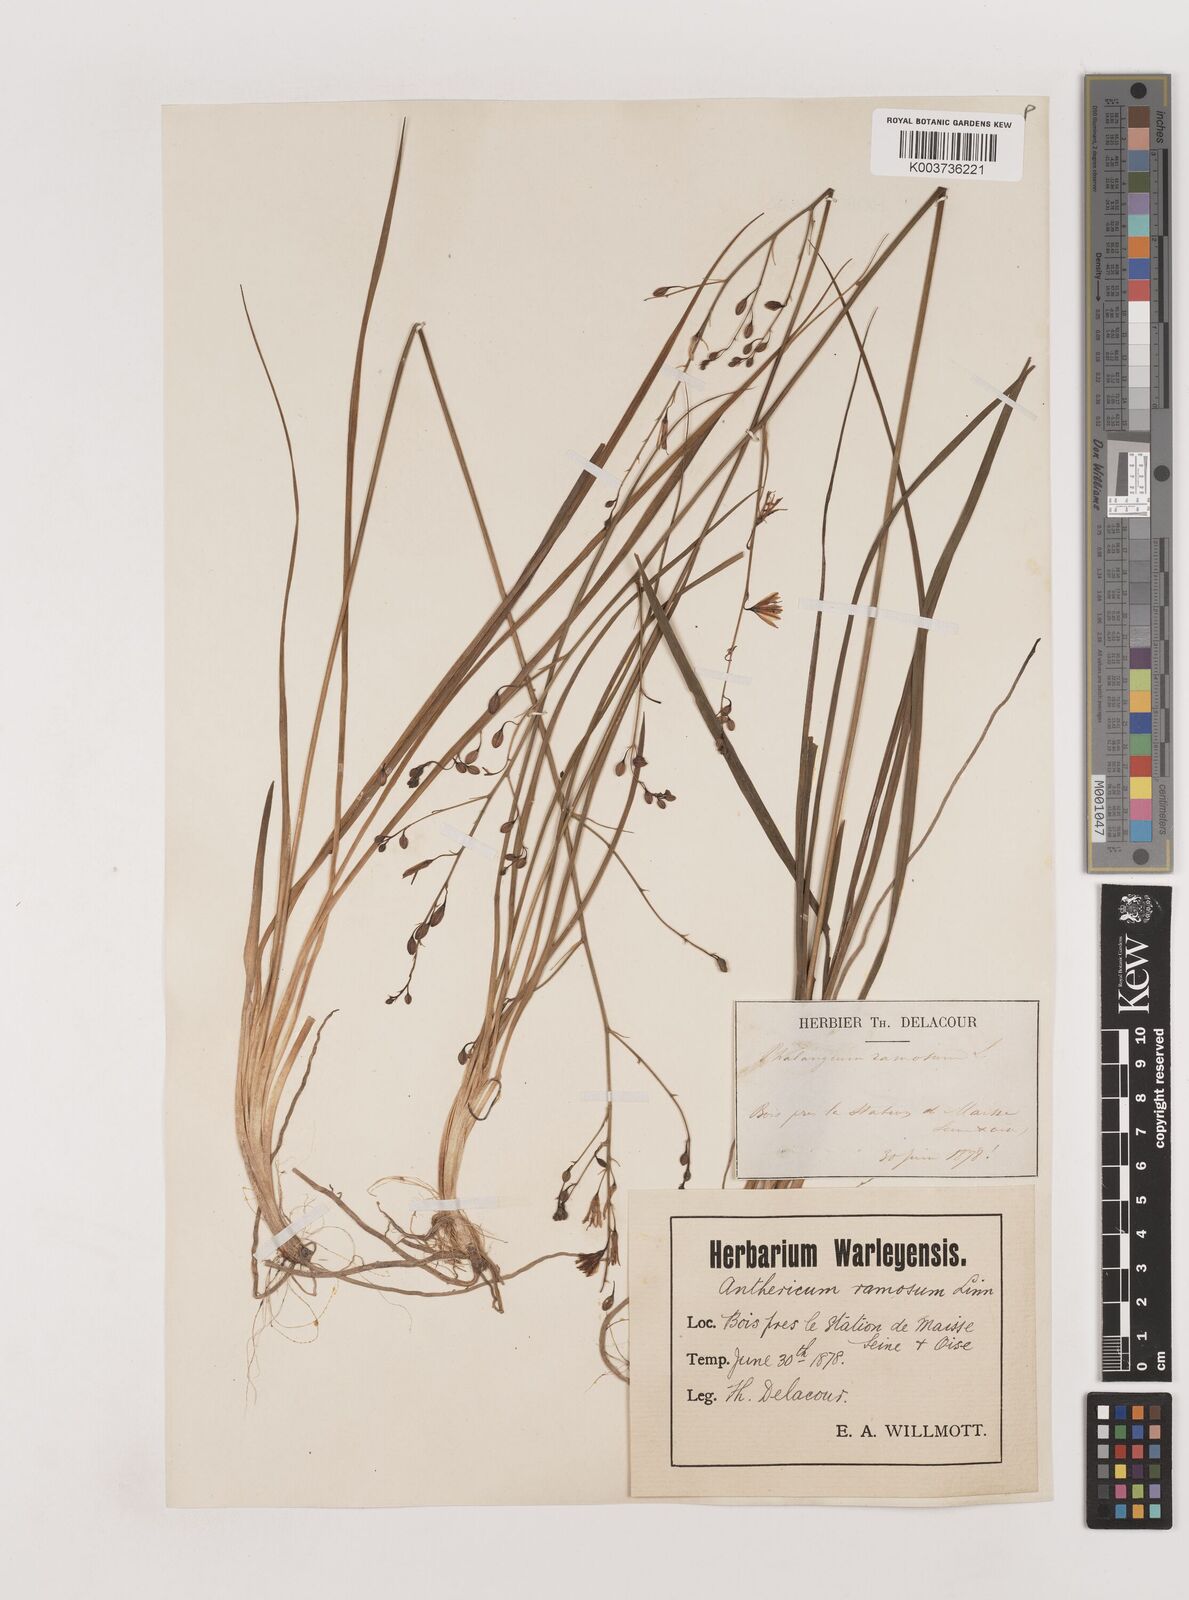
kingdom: Plantae
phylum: Tracheophyta
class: Liliopsida
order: Asparagales
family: Asparagaceae
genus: Anthericum
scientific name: Anthericum ramosum
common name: Branched st. bernard's-lily
